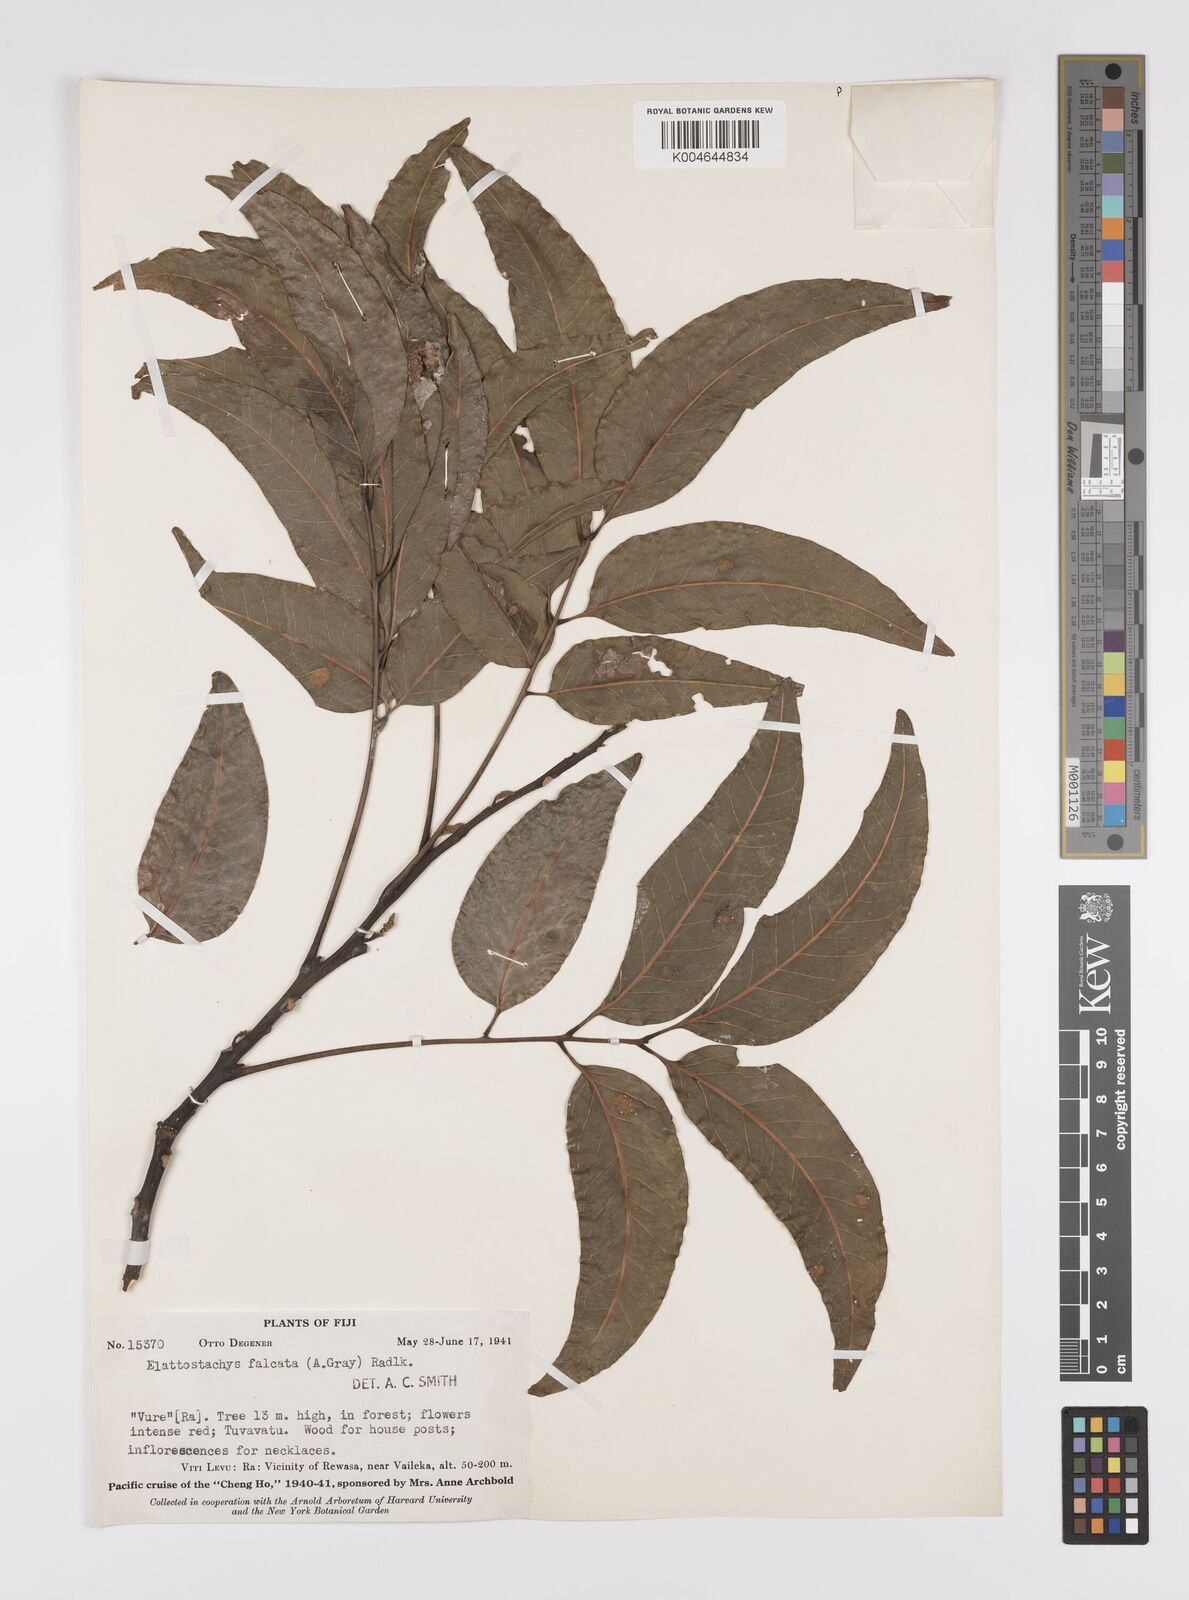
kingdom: Plantae
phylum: Tracheophyta
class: Magnoliopsida
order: Sapindales
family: Sapindaceae
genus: Elattostachys
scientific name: Elattostachys apetala
